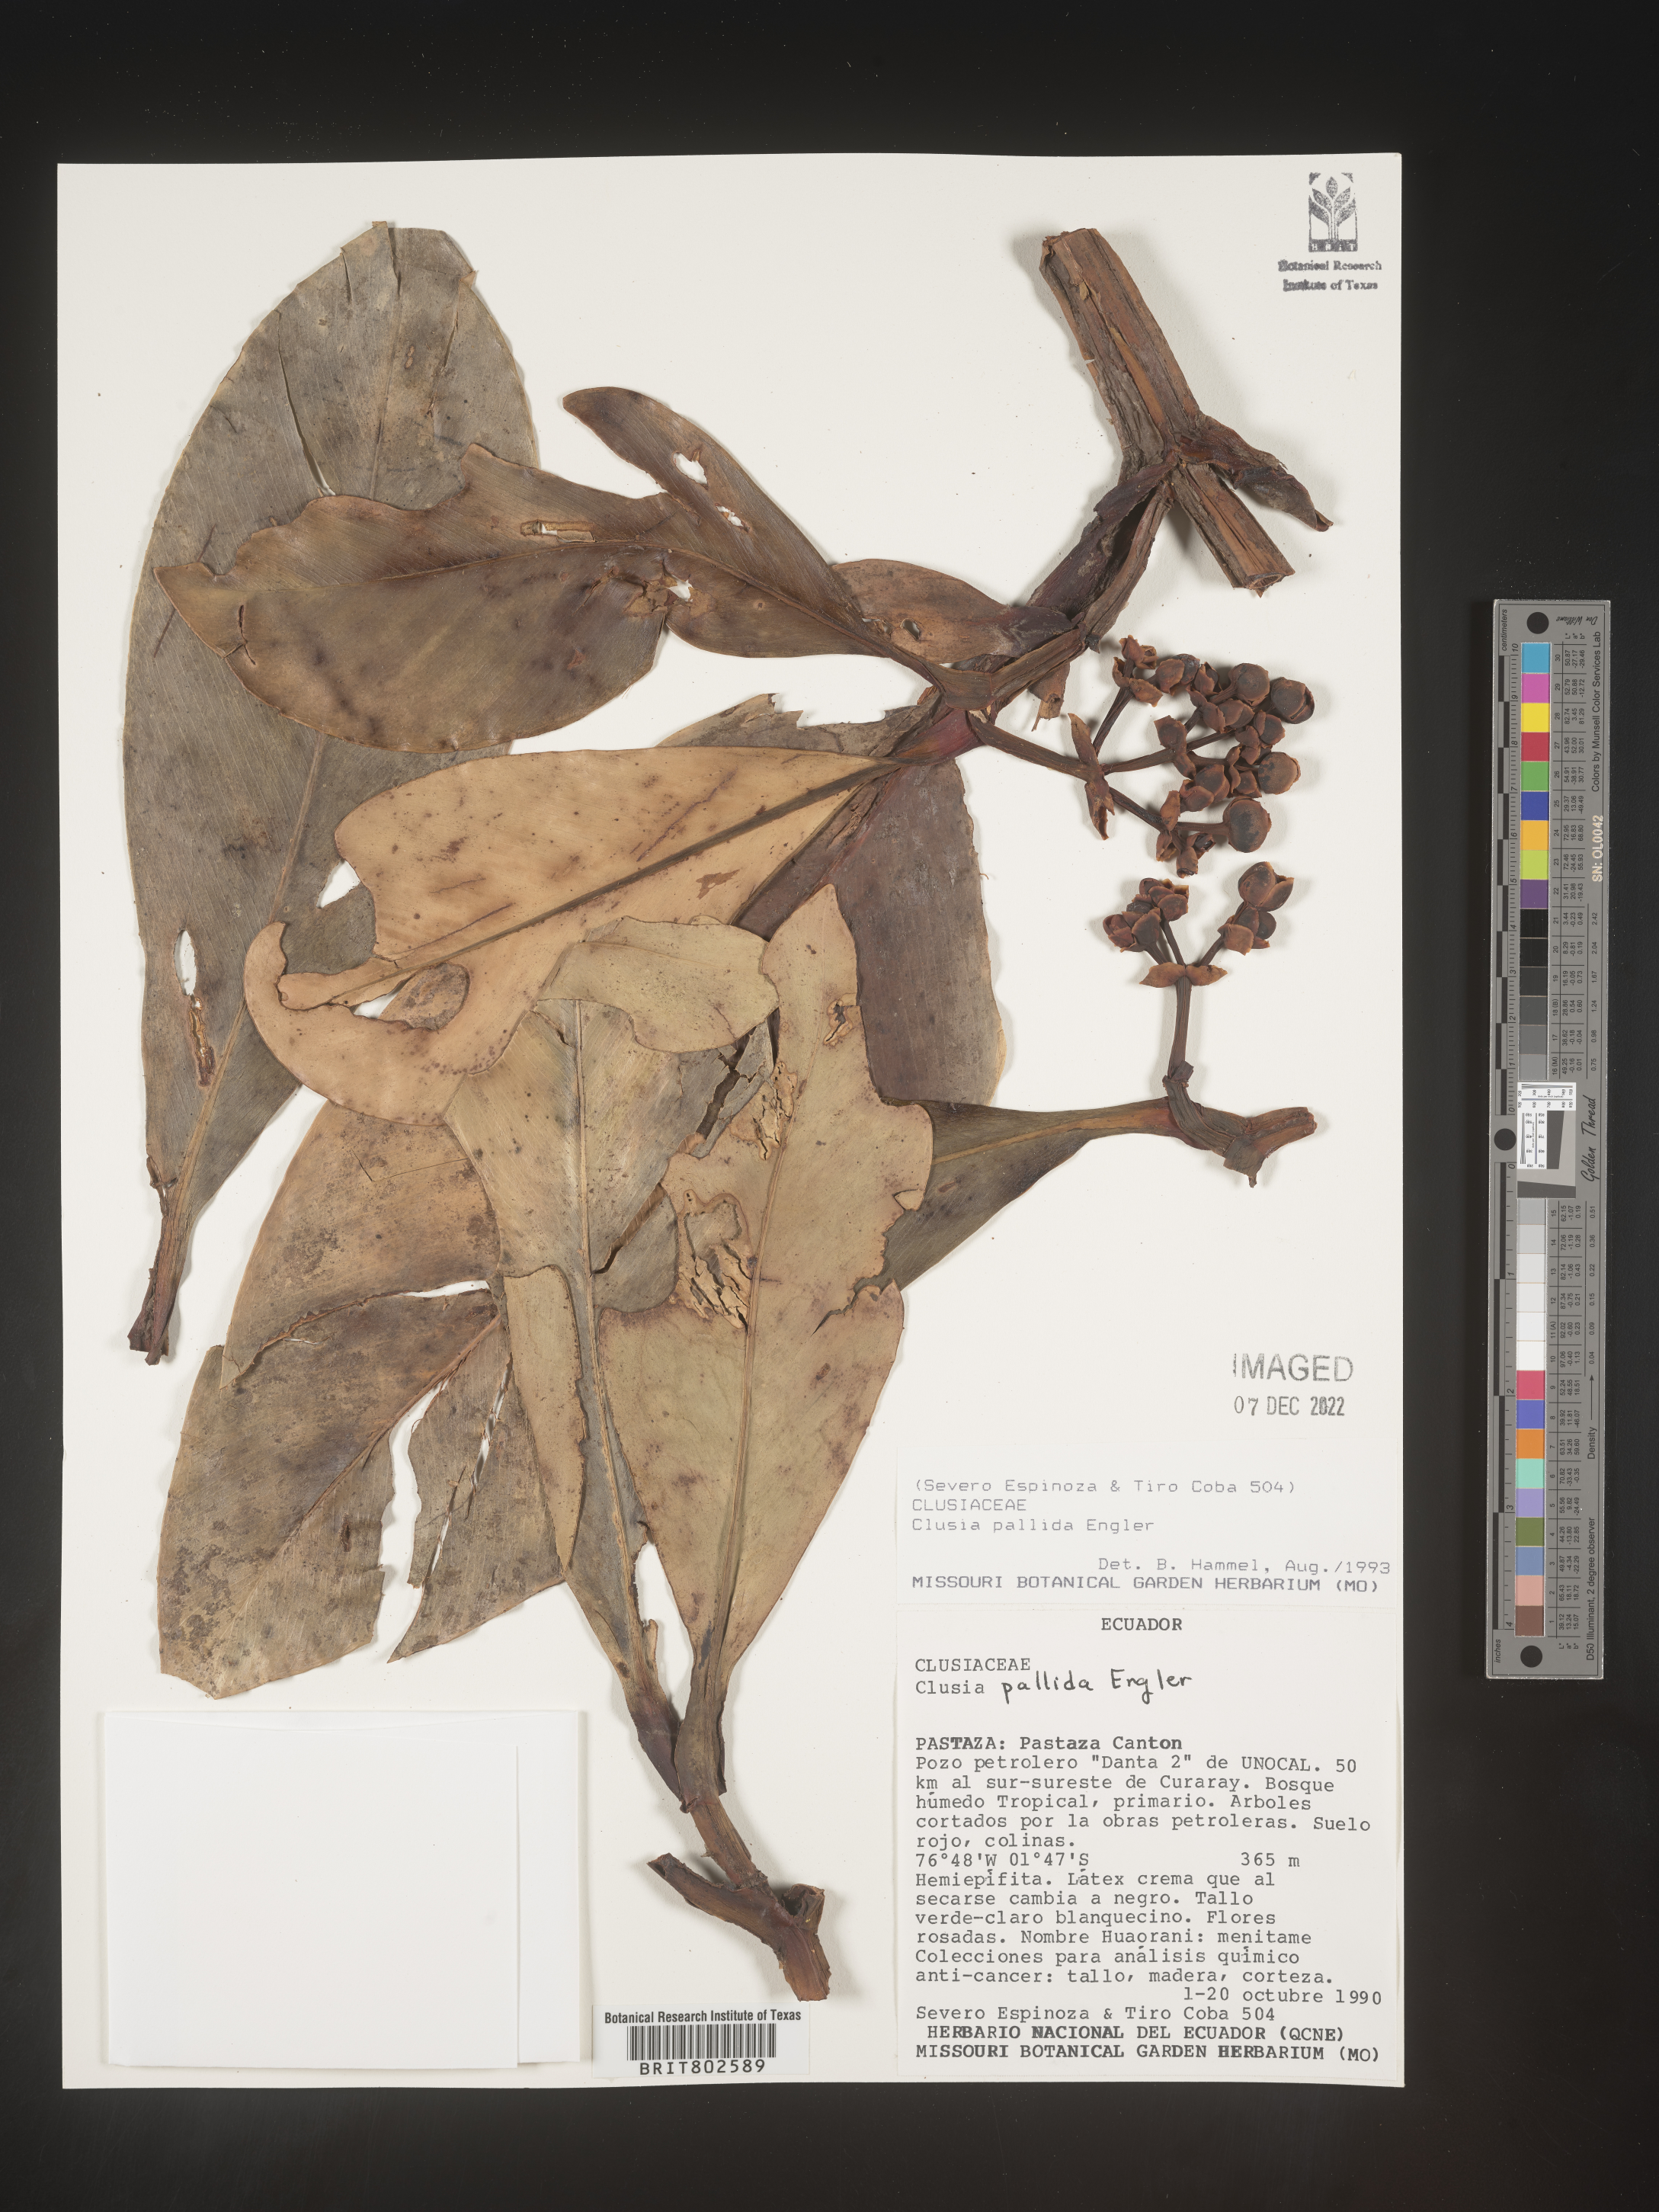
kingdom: Plantae
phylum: Tracheophyta
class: Magnoliopsida
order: Malpighiales
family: Clusiaceae
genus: Clusia
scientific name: Clusia pallida
